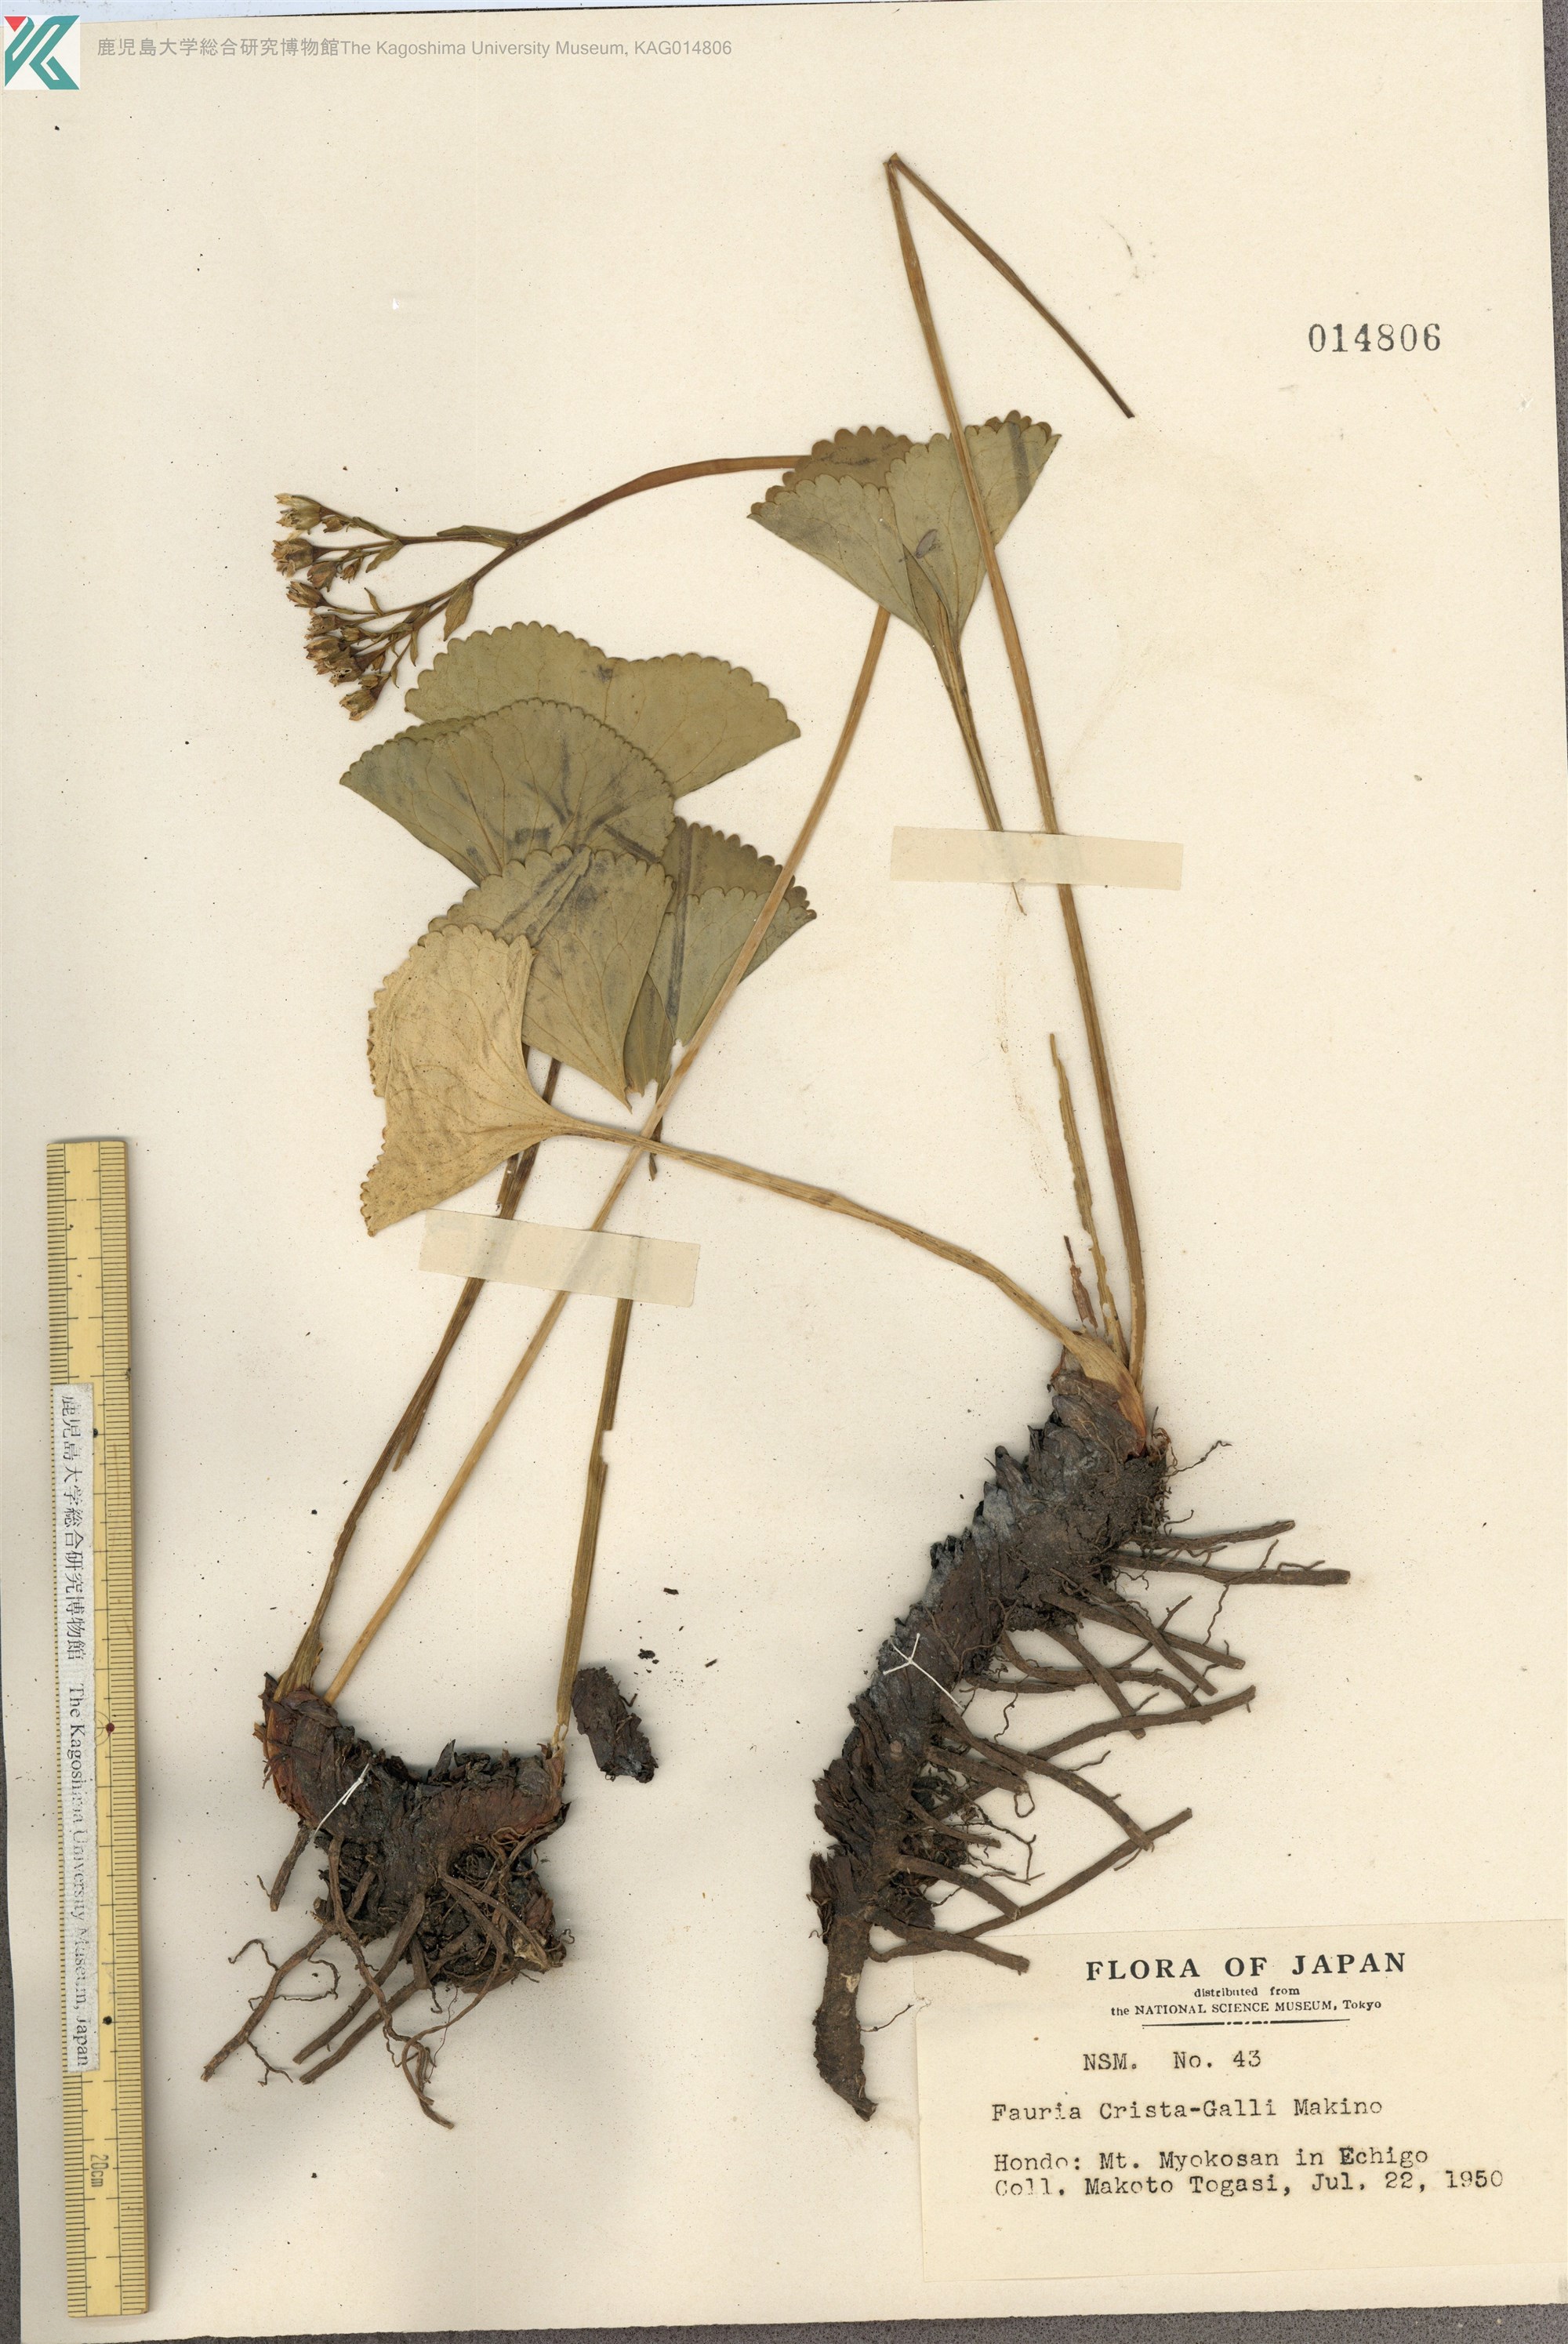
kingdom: Plantae
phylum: Tracheophyta
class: Magnoliopsida
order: Asterales
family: Menyanthaceae
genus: Nephrophyllidium
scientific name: Nephrophyllidium crista-galli
